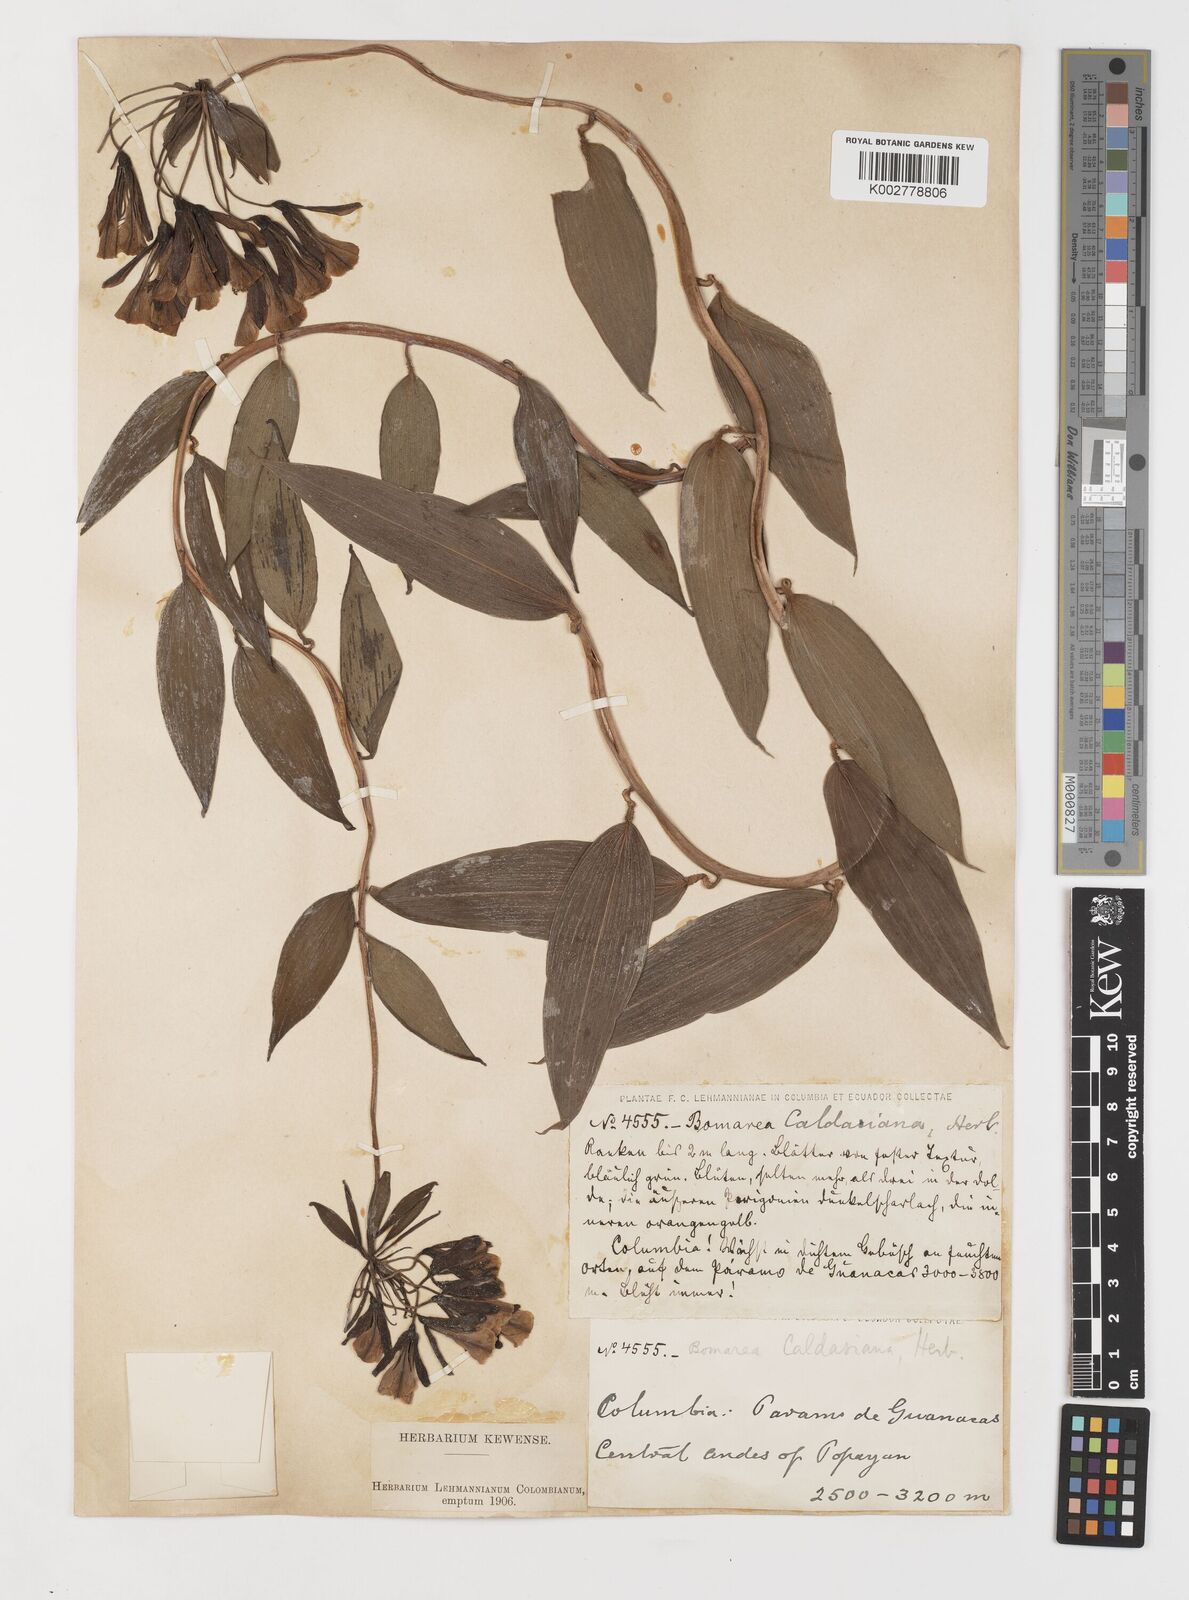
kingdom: Plantae
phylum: Tracheophyta
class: Liliopsida
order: Liliales
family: Alstroemeriaceae
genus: Bomarea
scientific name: Bomarea hirsuta
